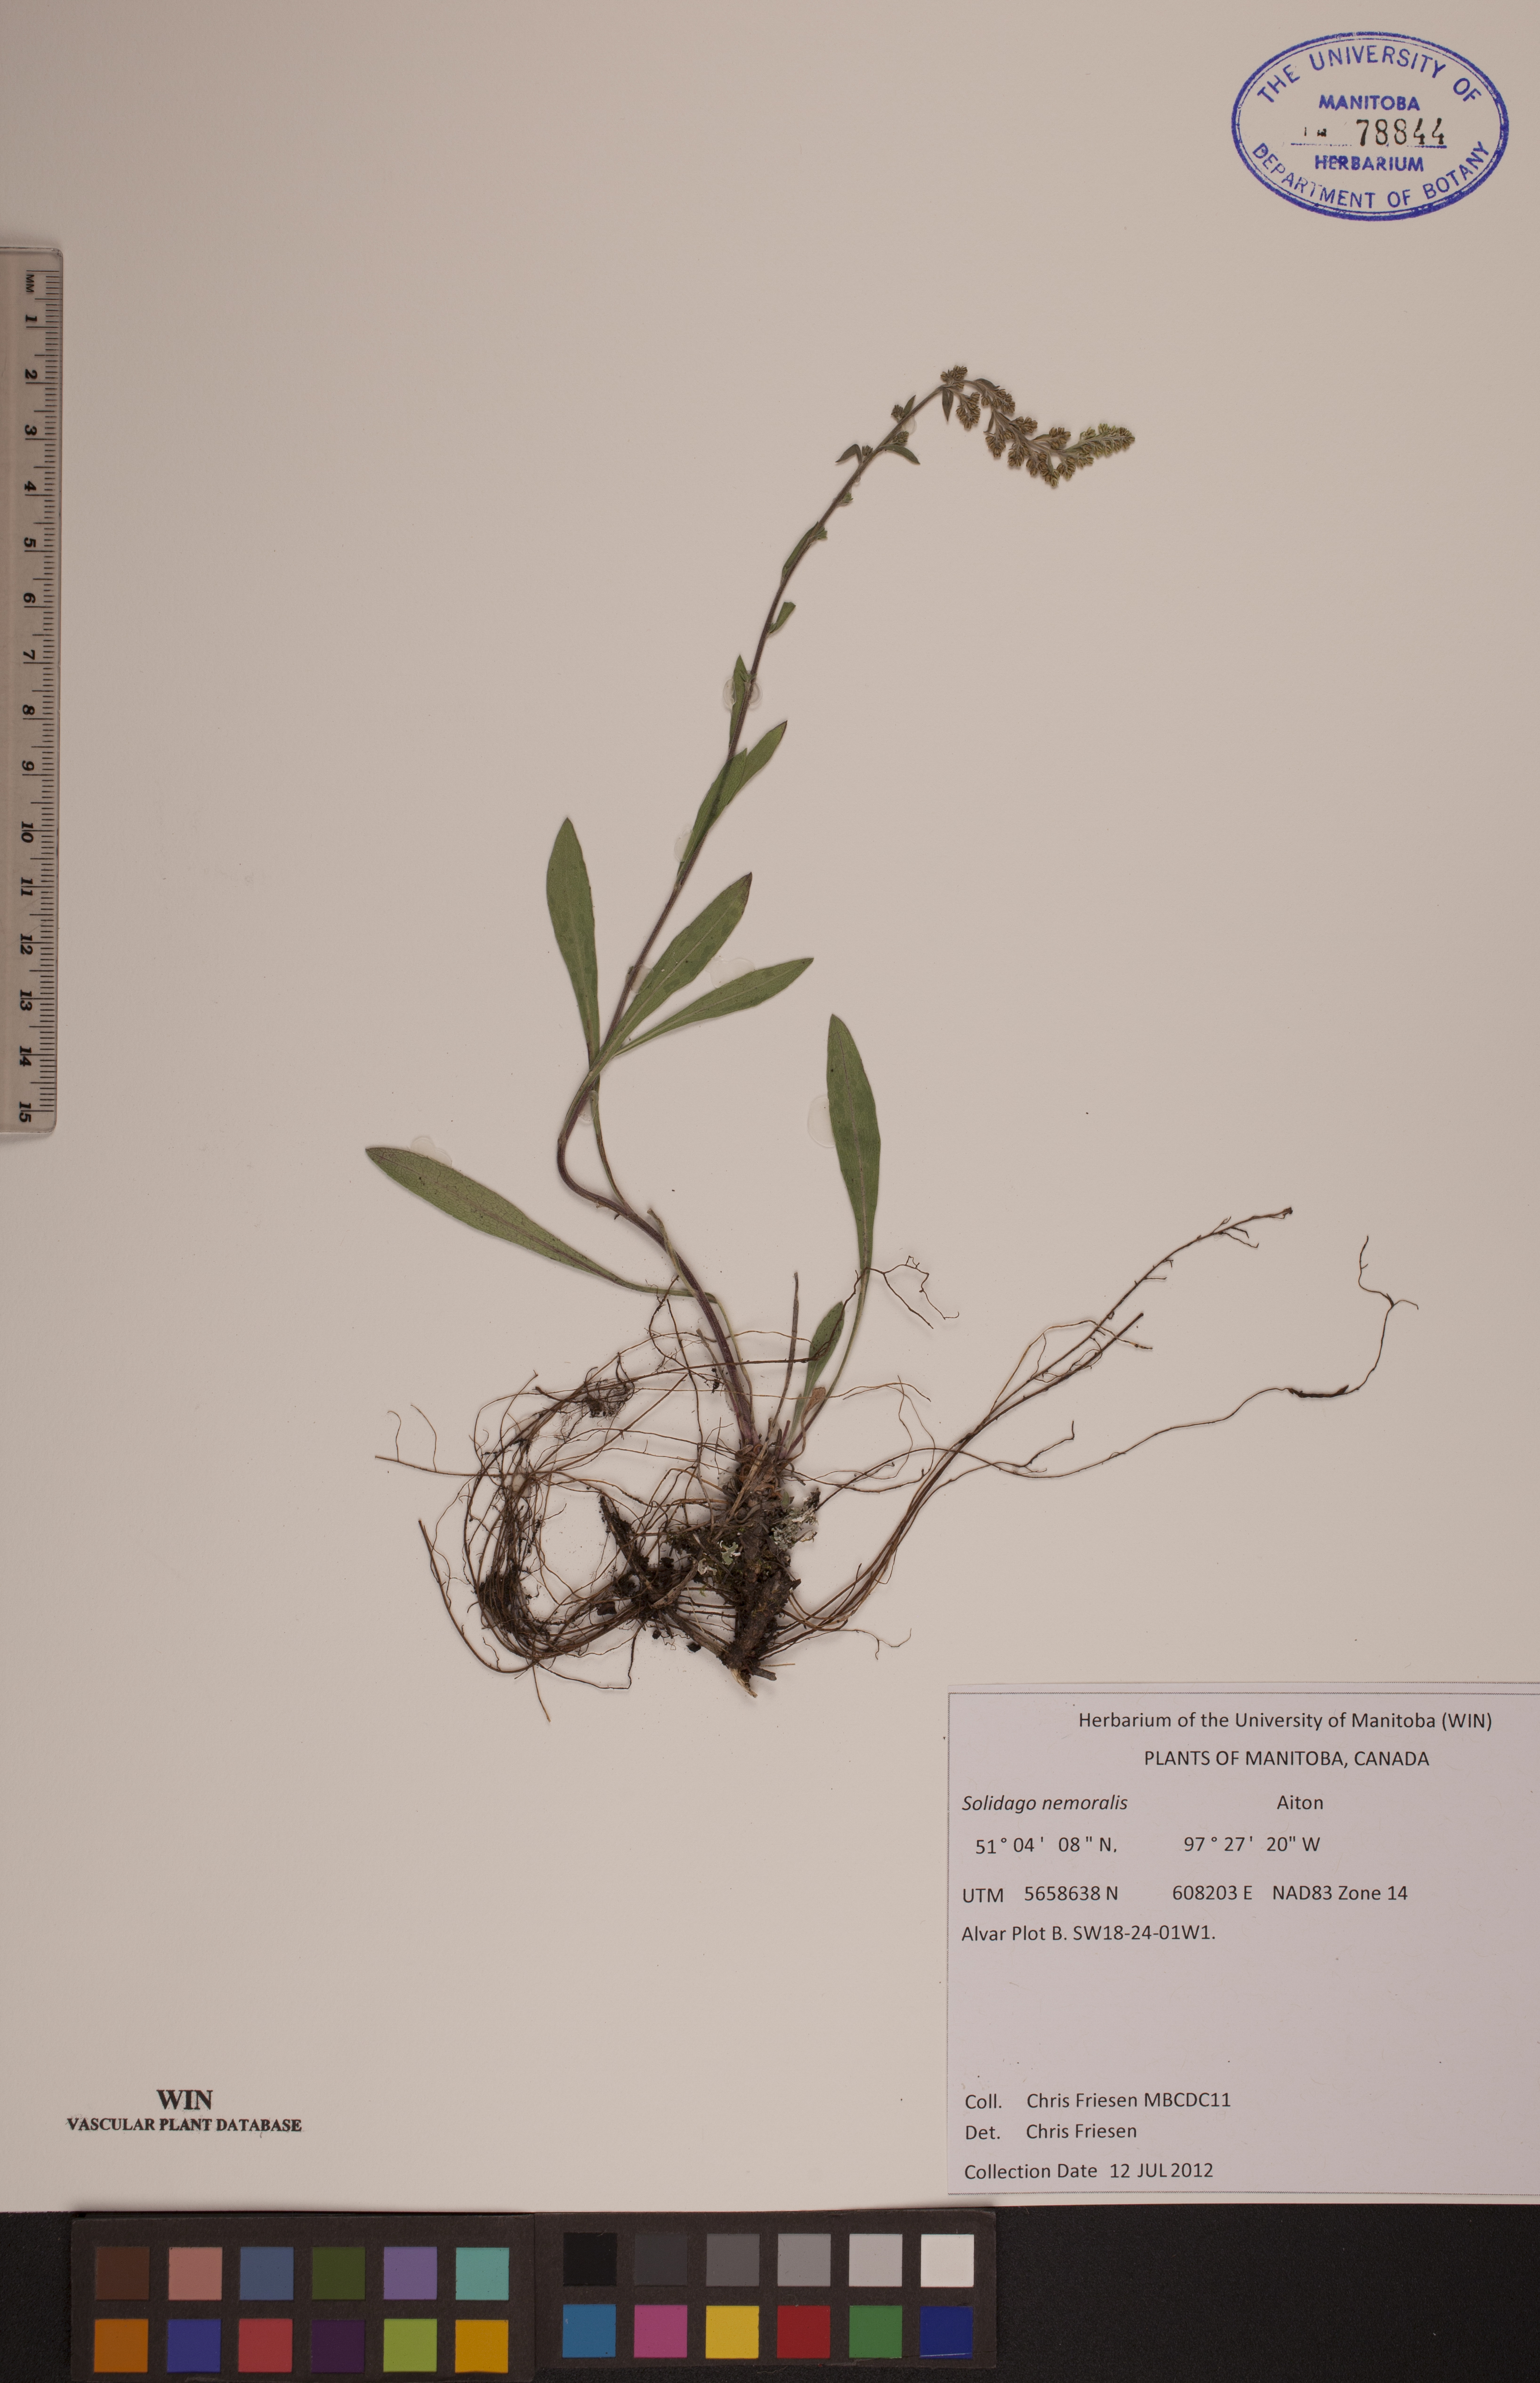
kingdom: Plantae
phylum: Tracheophyta
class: Magnoliopsida
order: Asterales
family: Asteraceae
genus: Solidago
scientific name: Solidago nemoralis
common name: Grey goldenrod
